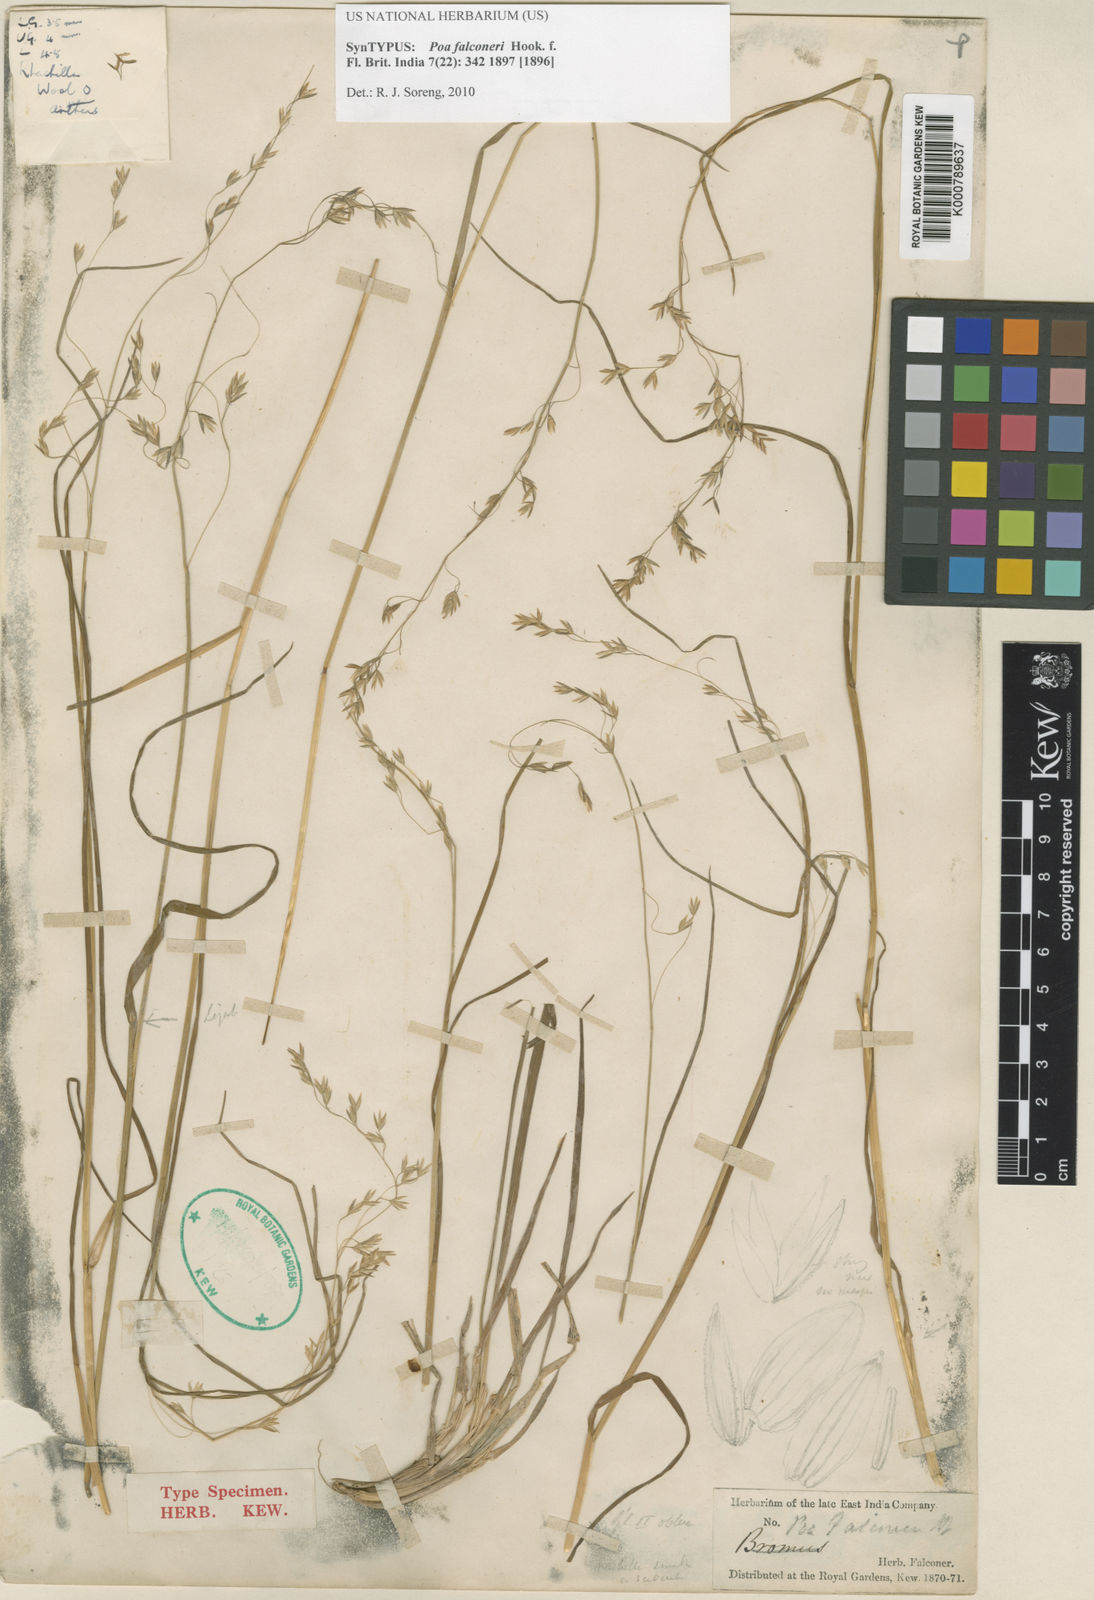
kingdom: Plantae
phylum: Tracheophyta
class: Liliopsida
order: Poales
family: Poaceae
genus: Poa
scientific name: Poa falconeri
